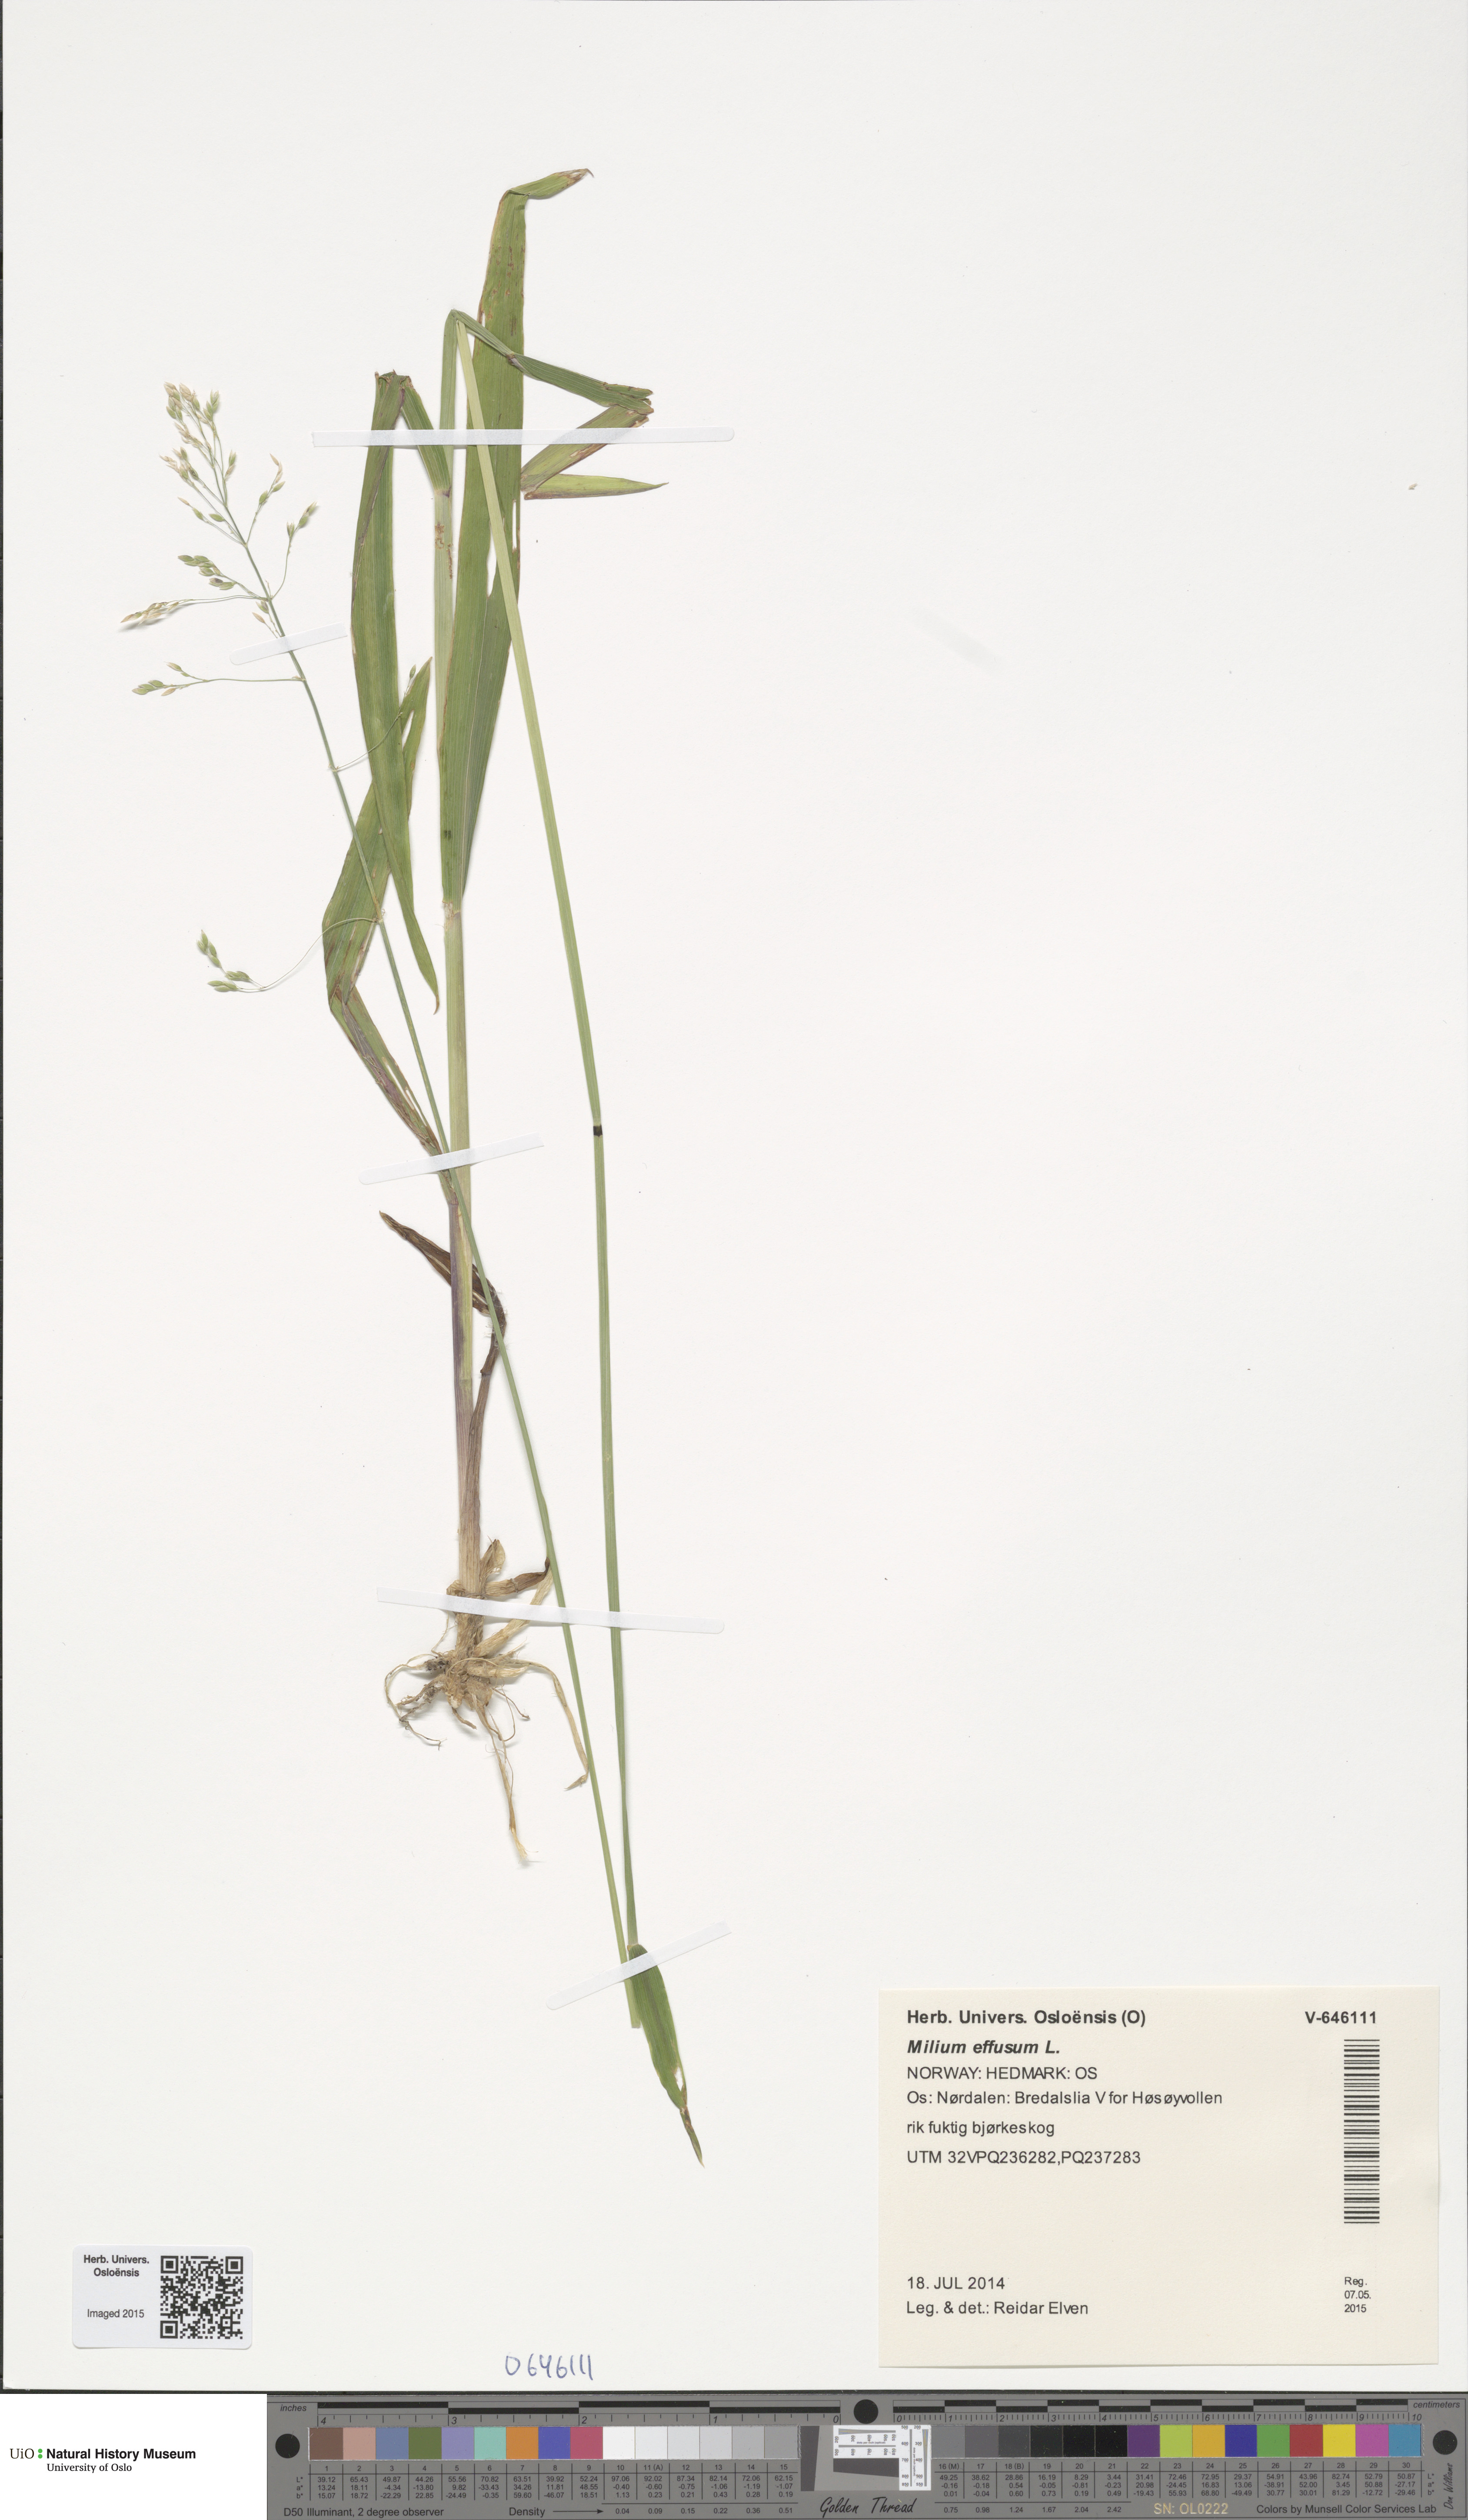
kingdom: Plantae
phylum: Tracheophyta
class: Liliopsida
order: Poales
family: Poaceae
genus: Milium
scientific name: Milium effusum
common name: Wood millet
